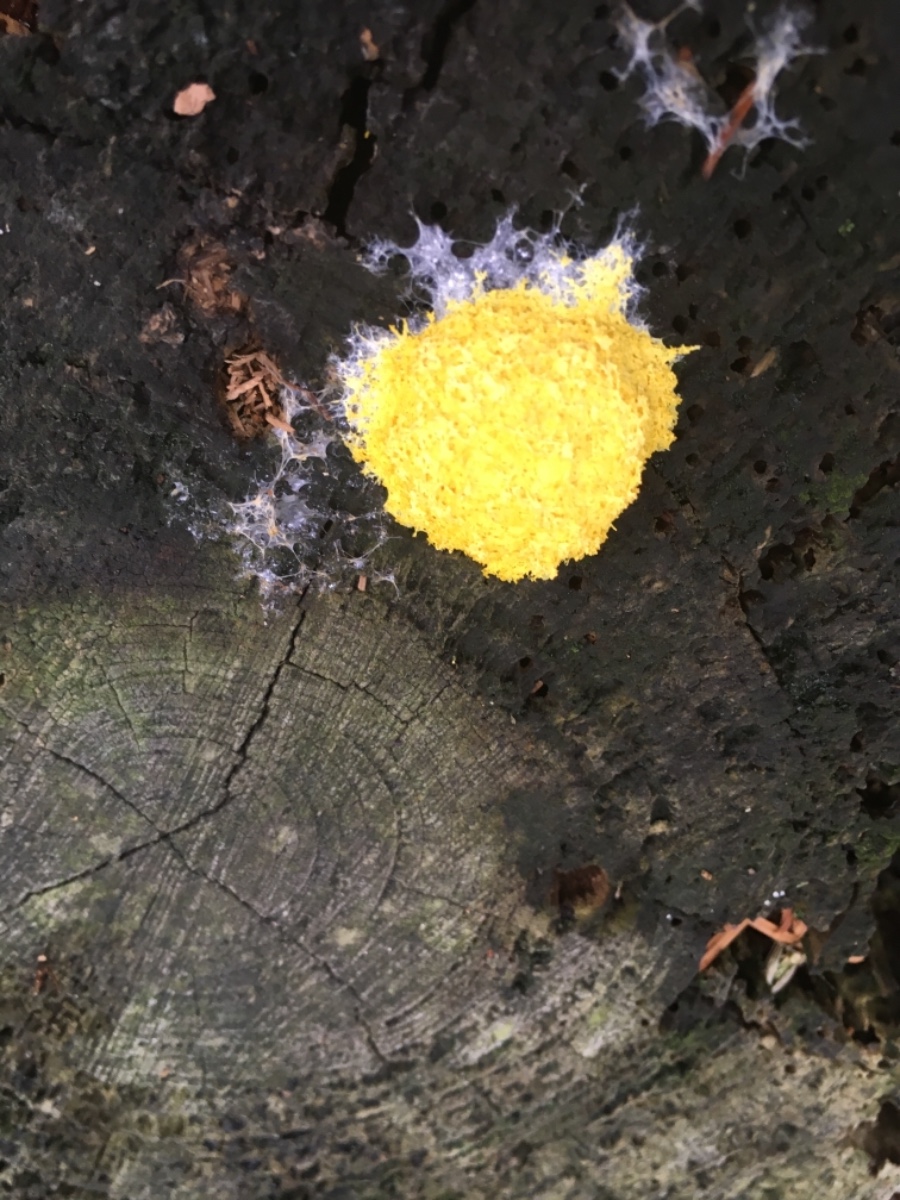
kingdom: Protozoa
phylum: Mycetozoa
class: Myxomycetes
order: Physarales
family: Physaraceae
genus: Fuligo
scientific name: Fuligo septica
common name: gul troldsmør
